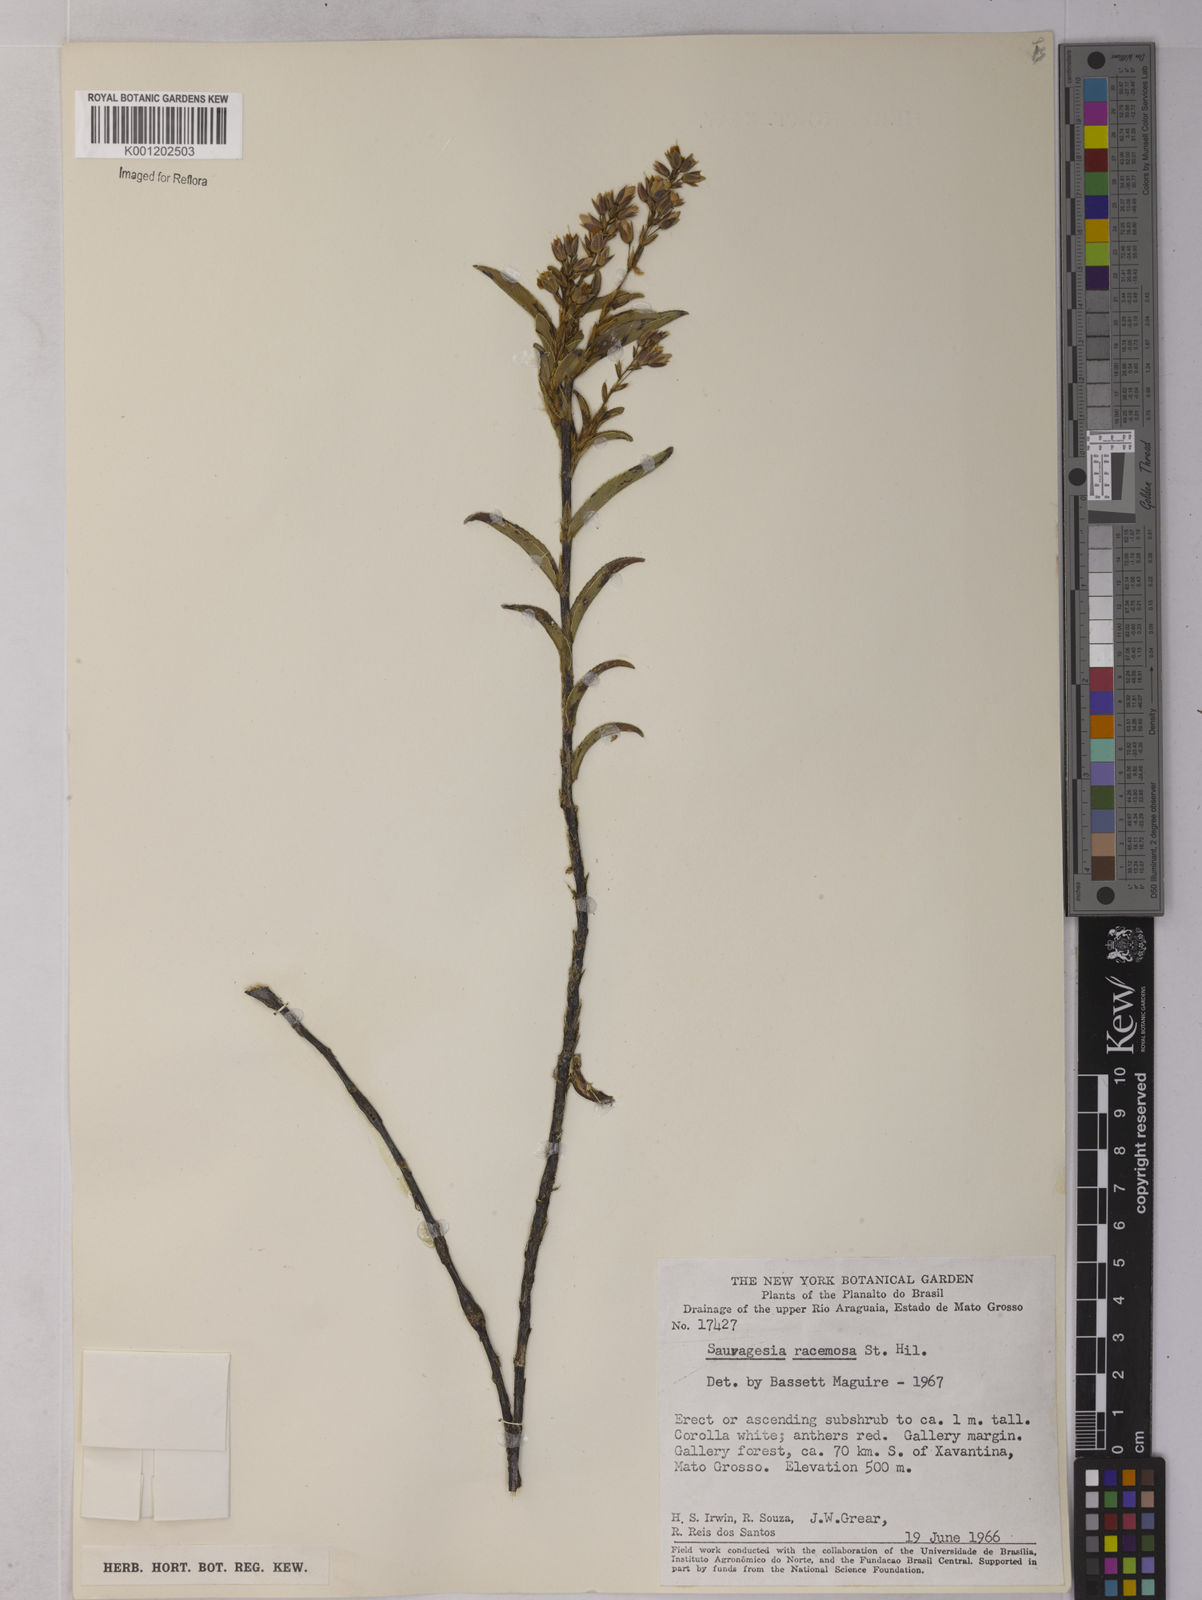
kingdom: Plantae
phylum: Tracheophyta
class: Magnoliopsida
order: Malpighiales
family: Ochnaceae
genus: Sauvagesia
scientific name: Sauvagesia racemosa
